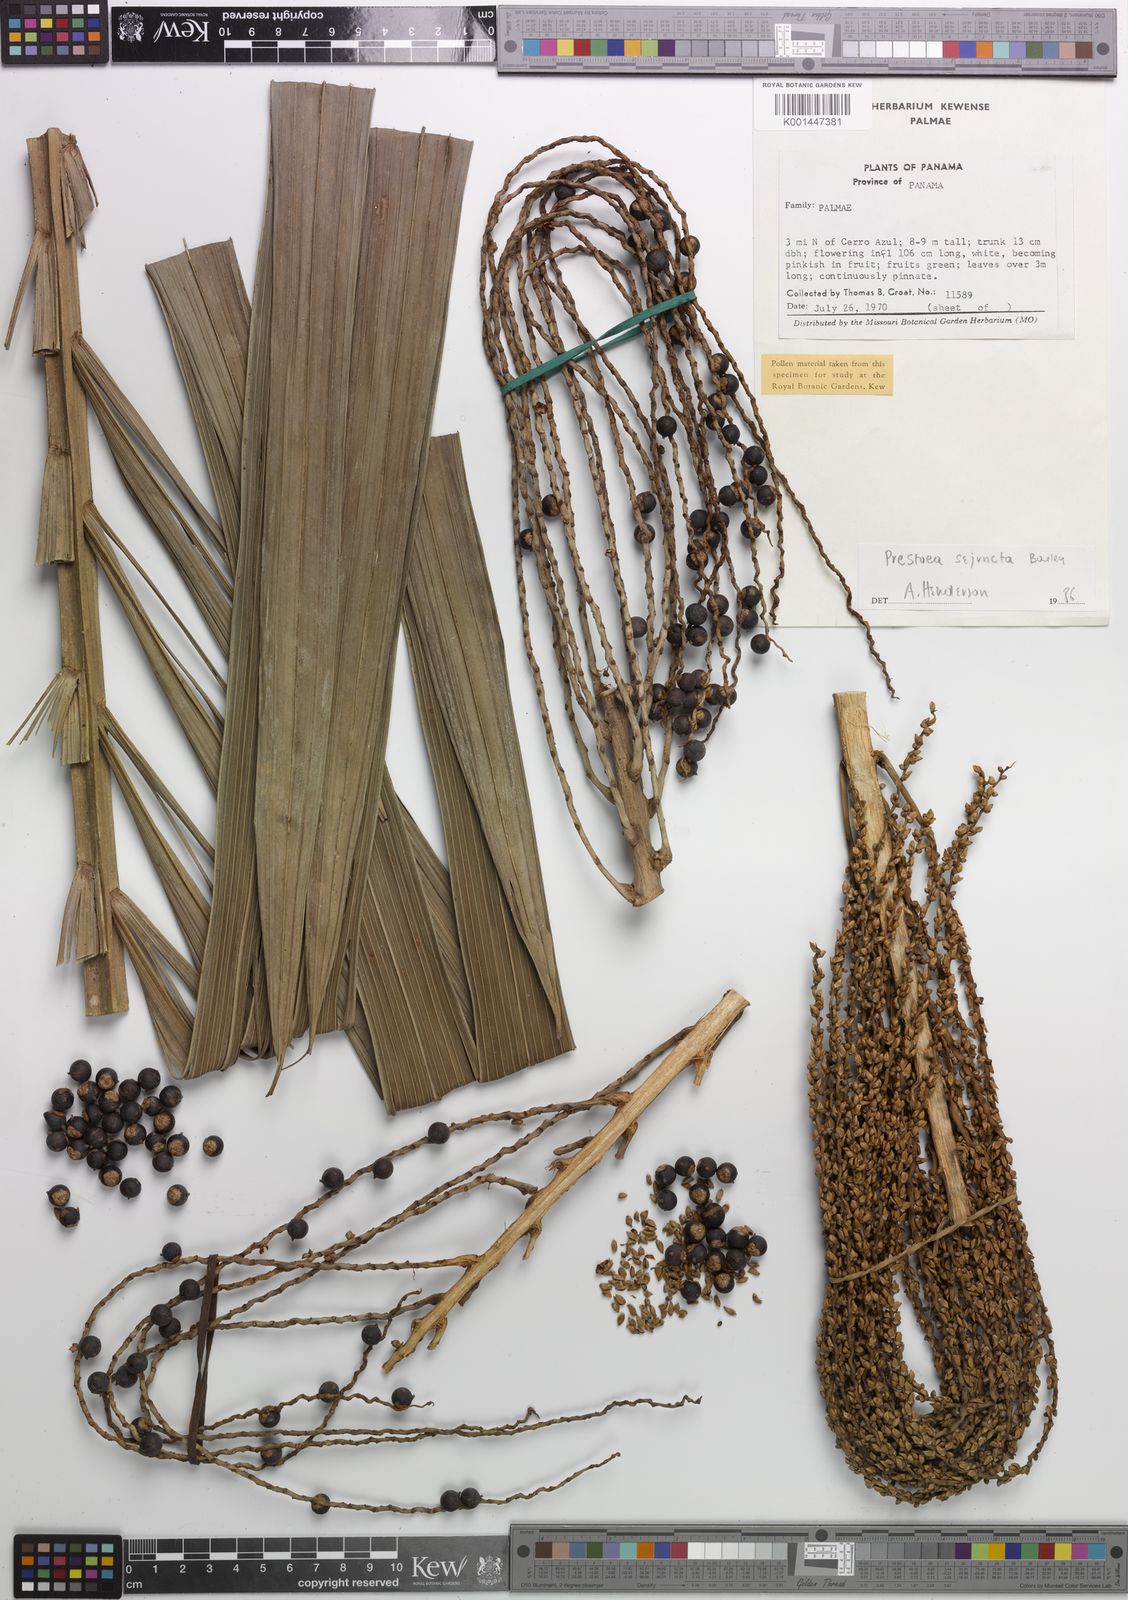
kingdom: Plantae
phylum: Tracheophyta
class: Liliopsida
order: Arecales
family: Arecaceae
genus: Prestoea
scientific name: Prestoea ensiformis
